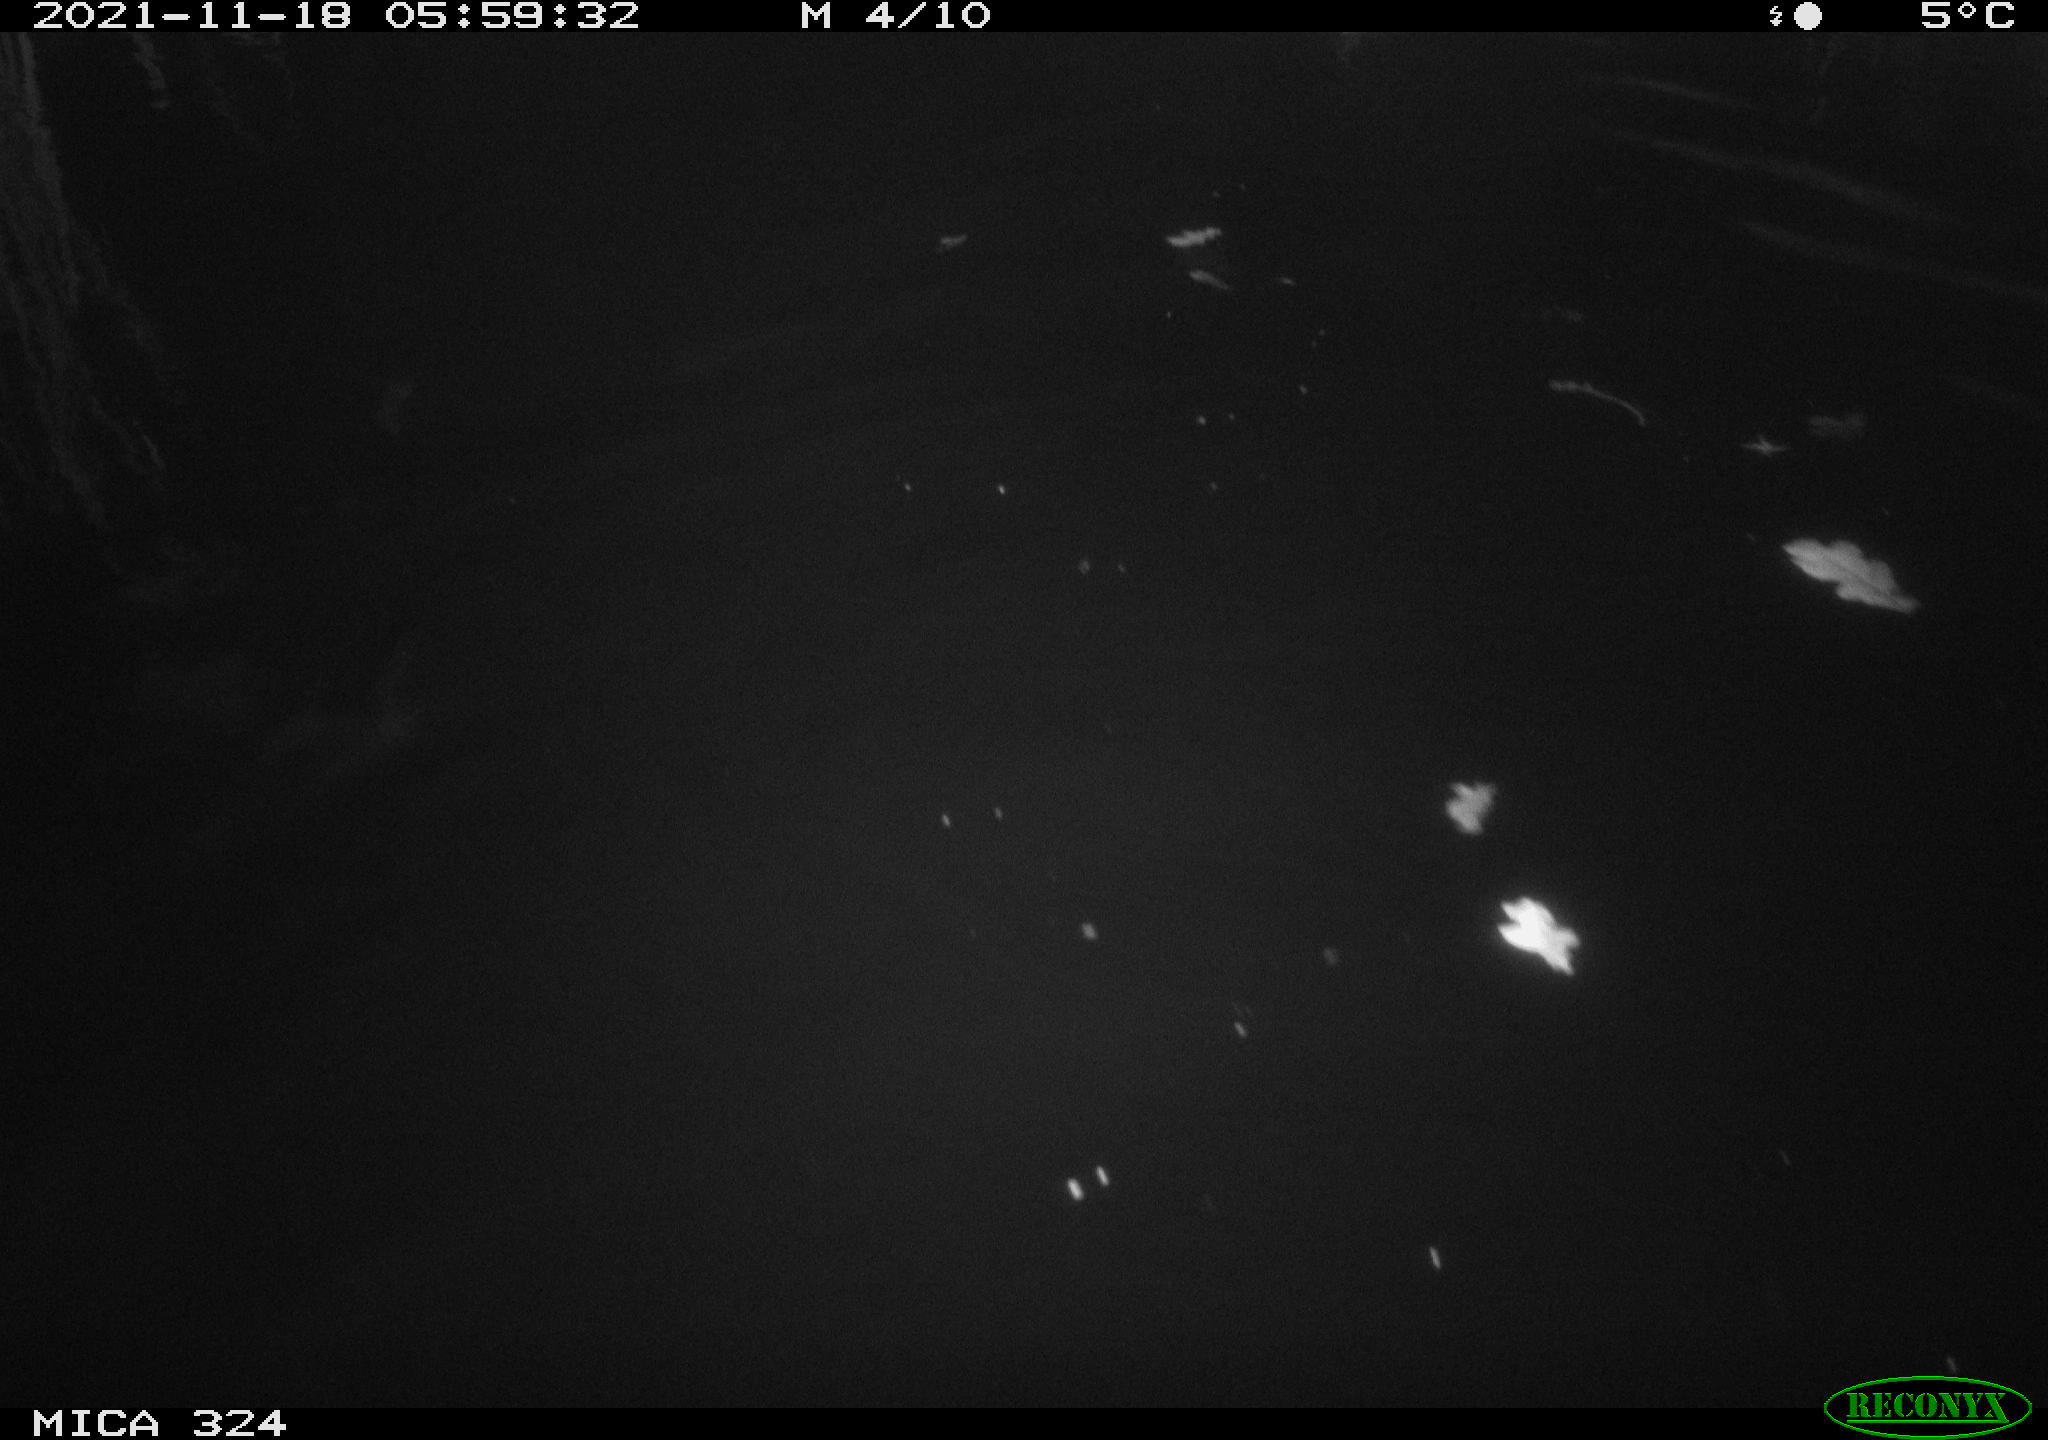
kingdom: Animalia
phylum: Chordata
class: Mammalia
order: Rodentia
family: Cricetidae
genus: Ondatra
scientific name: Ondatra zibethicus
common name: Muskrat
